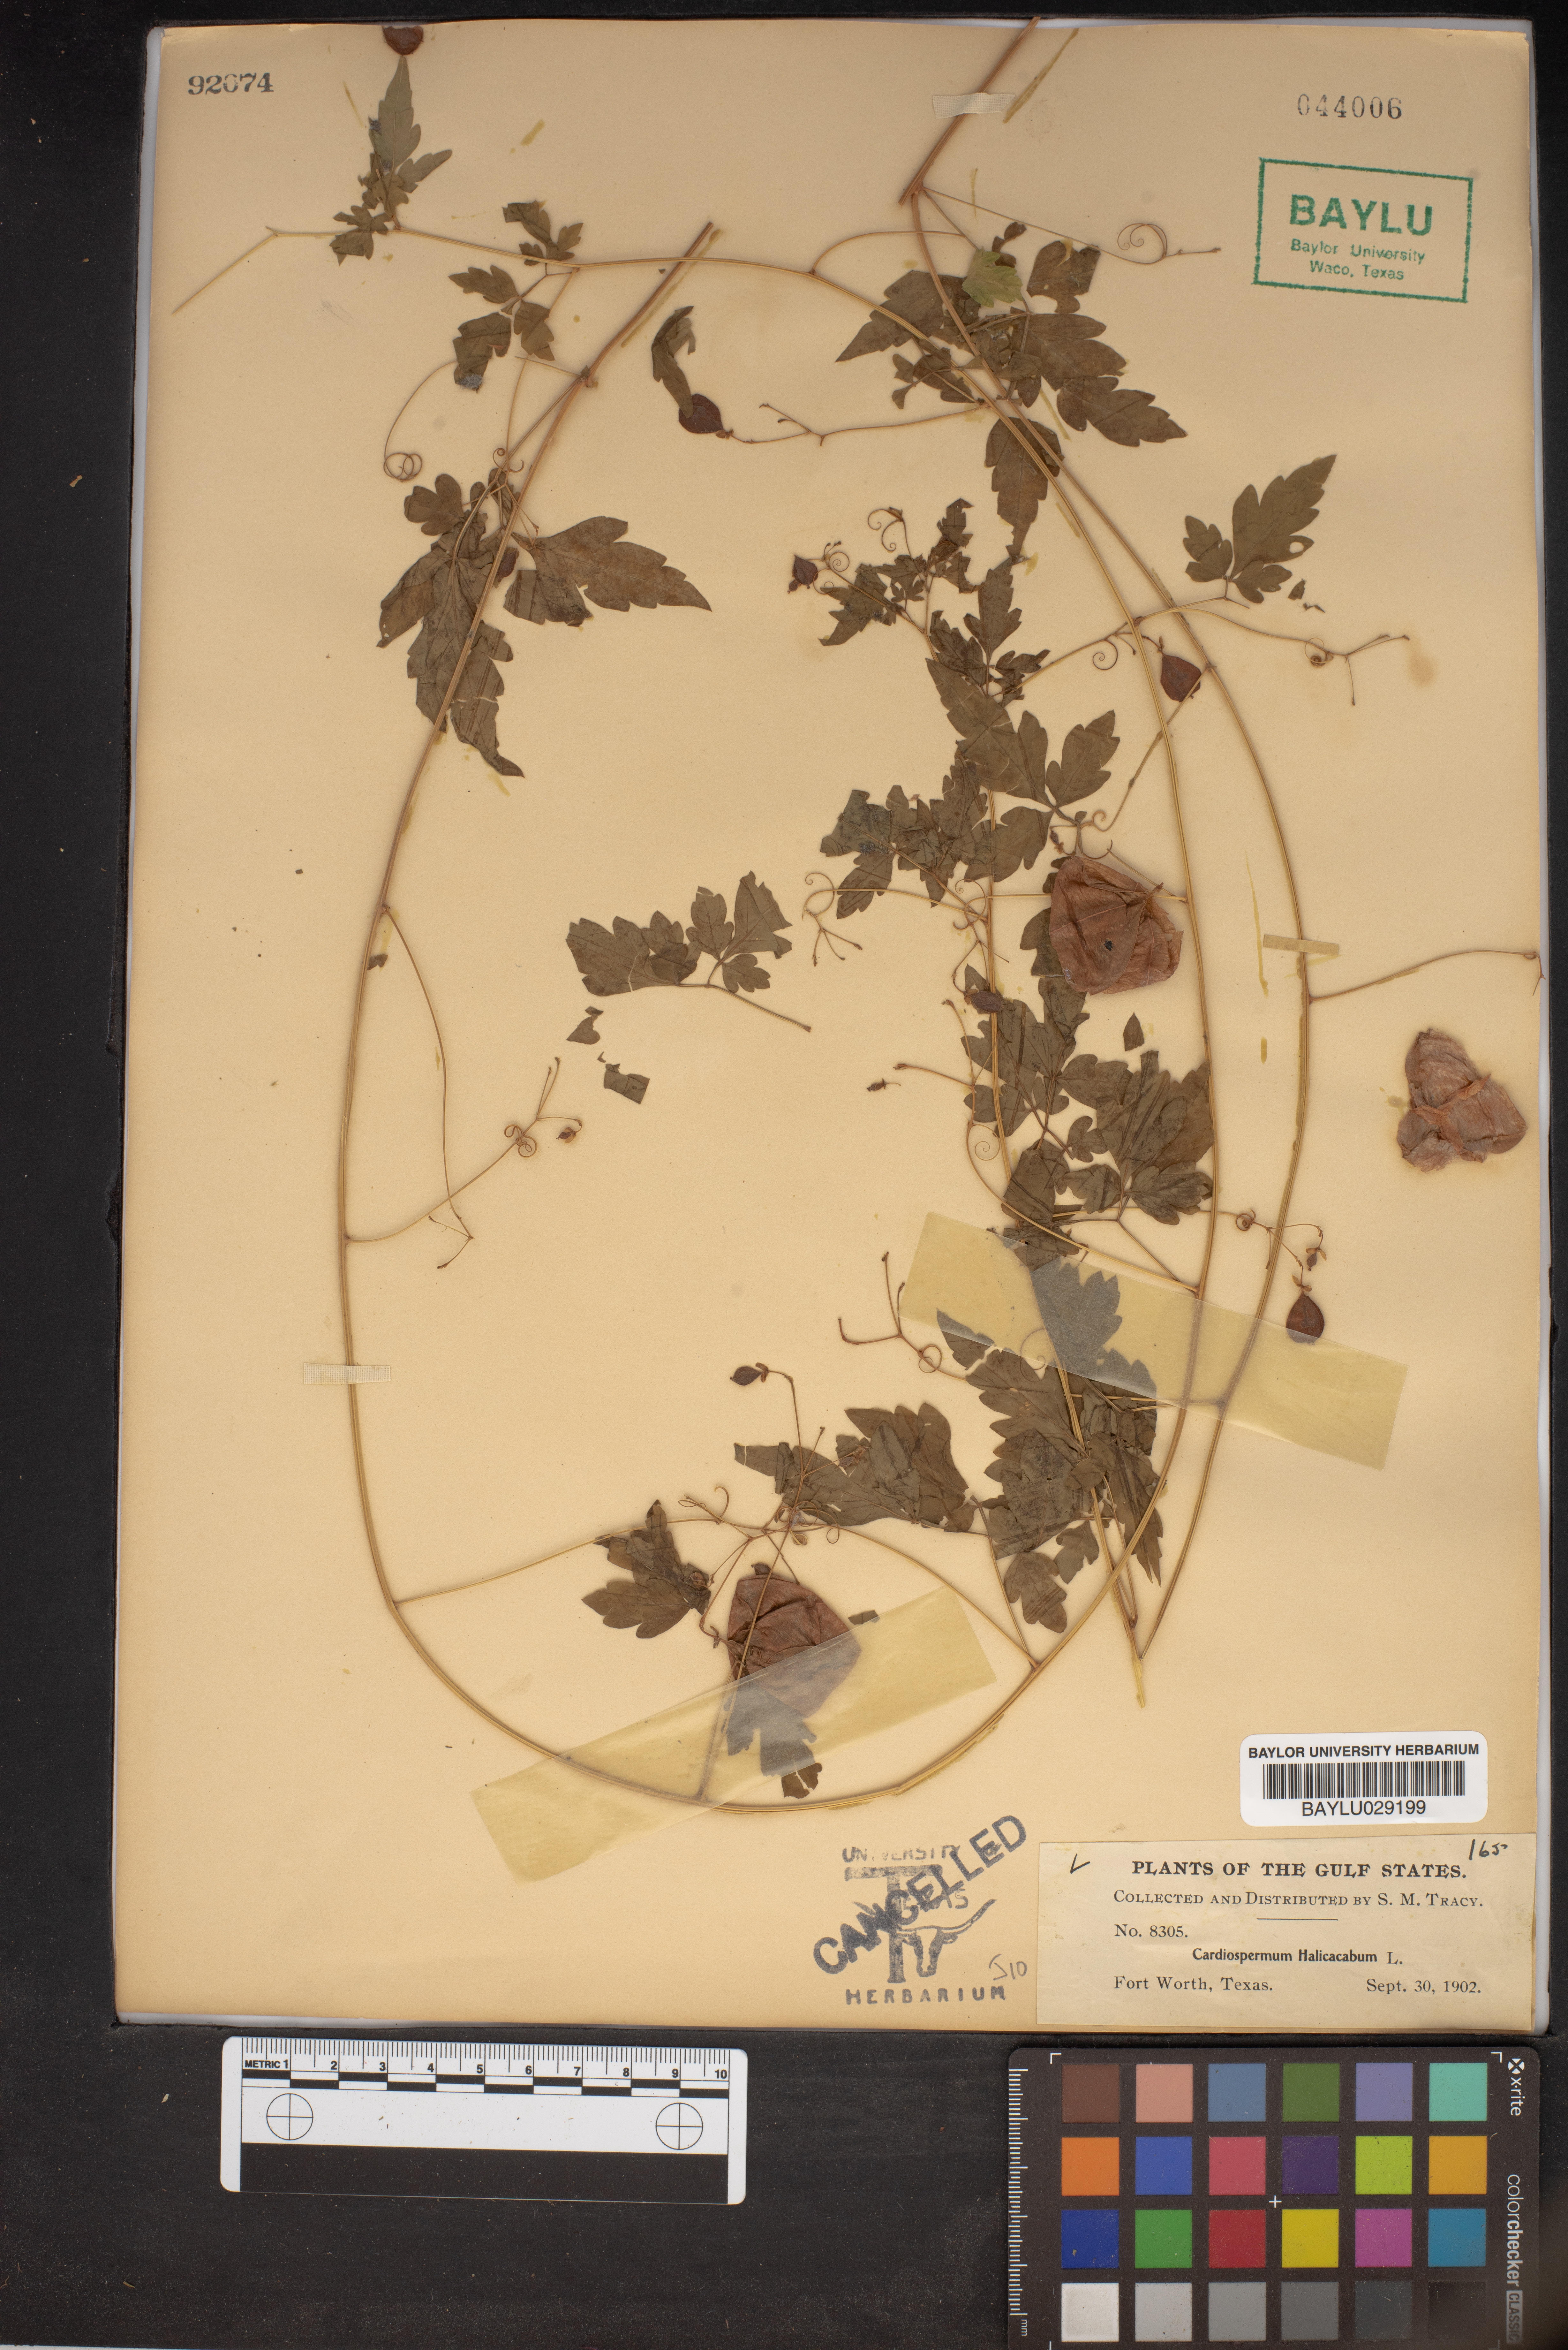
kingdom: Plantae
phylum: Tracheophyta
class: Magnoliopsida
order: Sapindales
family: Sapindaceae
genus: Cardiospermum
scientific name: Cardiospermum halicacabum
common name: Balloon vine
